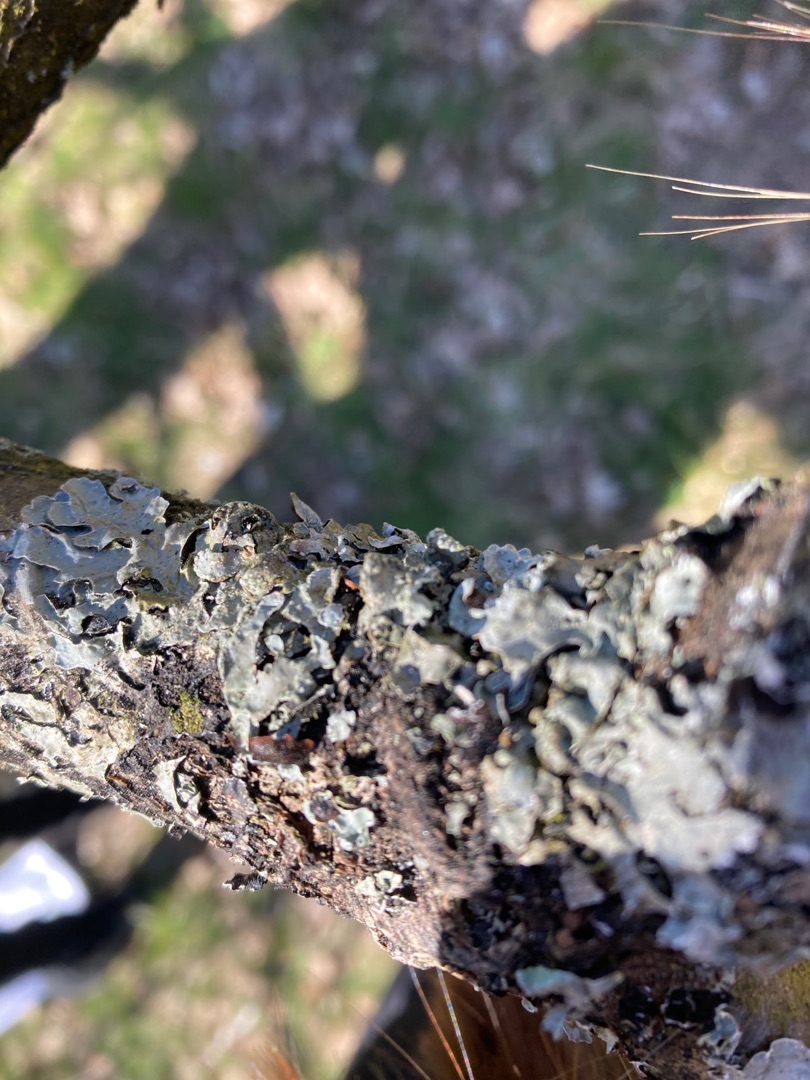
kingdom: Fungi
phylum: Ascomycota
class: Lecanoromycetes
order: Lecanorales
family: Parmeliaceae
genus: Parmelia
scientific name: Parmelia sulcata
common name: Rynket skållav
